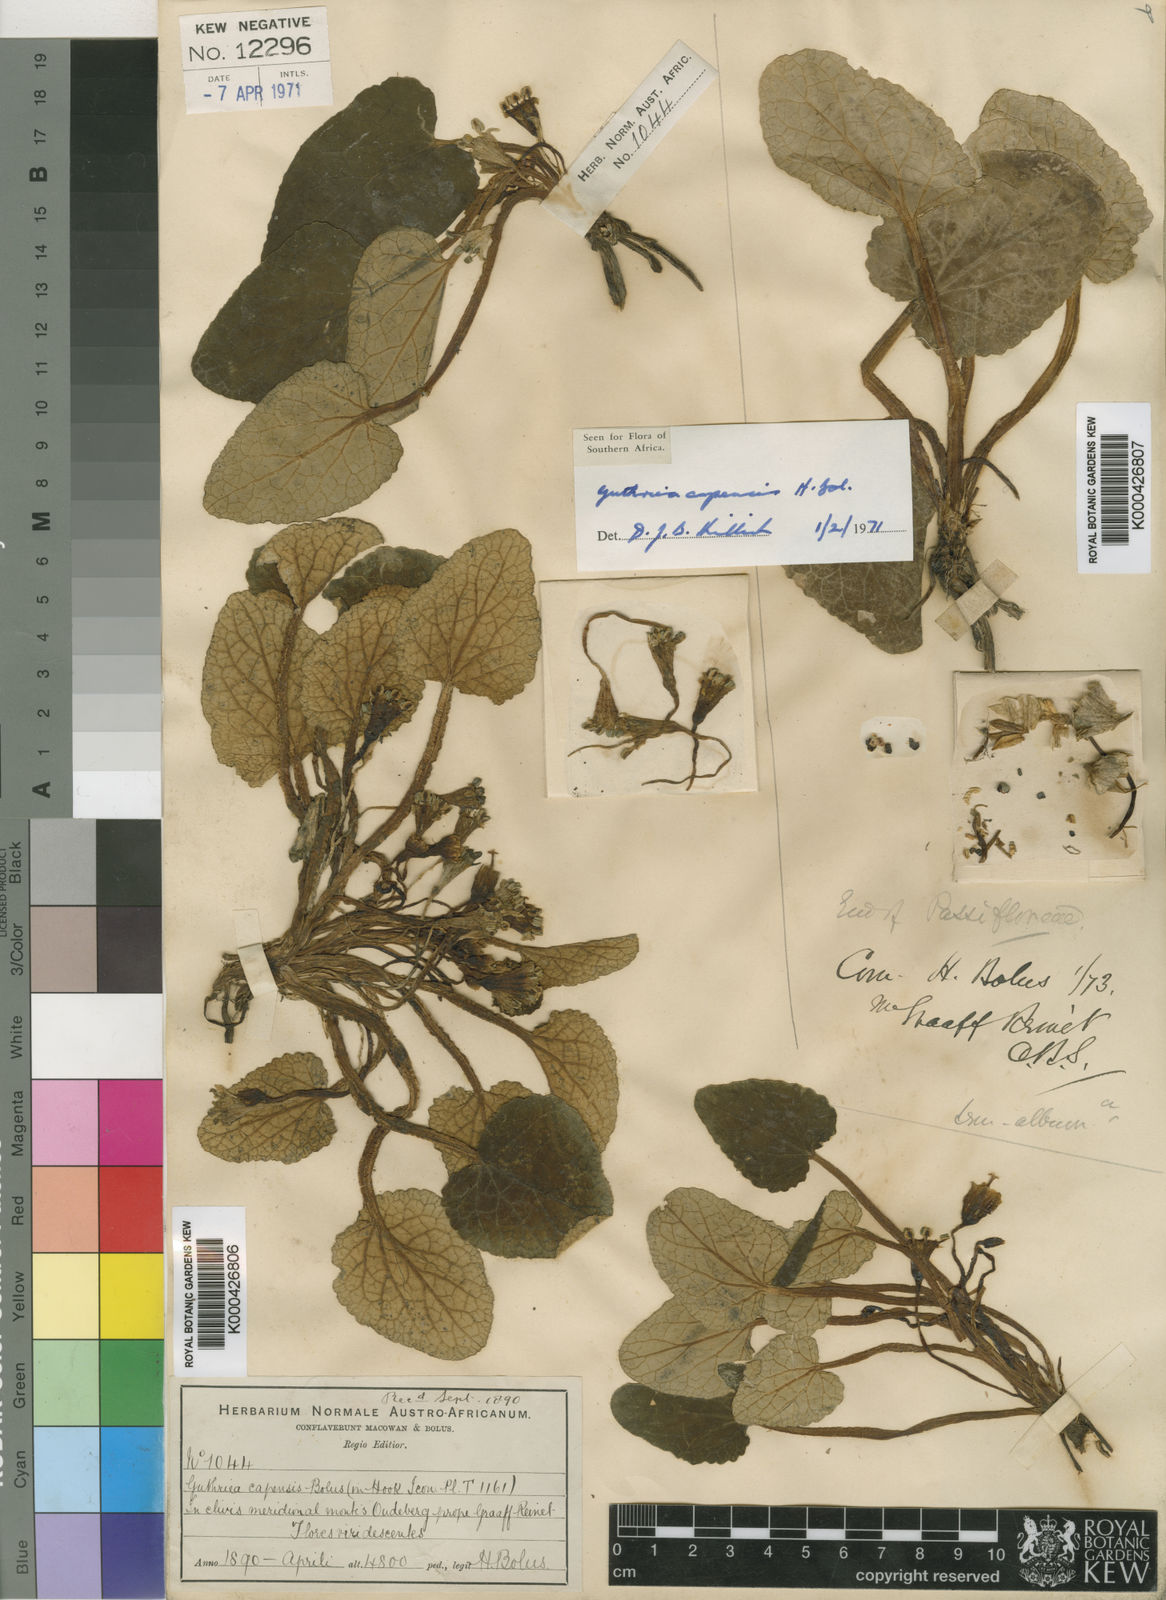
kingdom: Plantae
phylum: Tracheophyta
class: Magnoliopsida
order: Malpighiales
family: Achariaceae
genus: Guthriea
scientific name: Guthriea capensis
